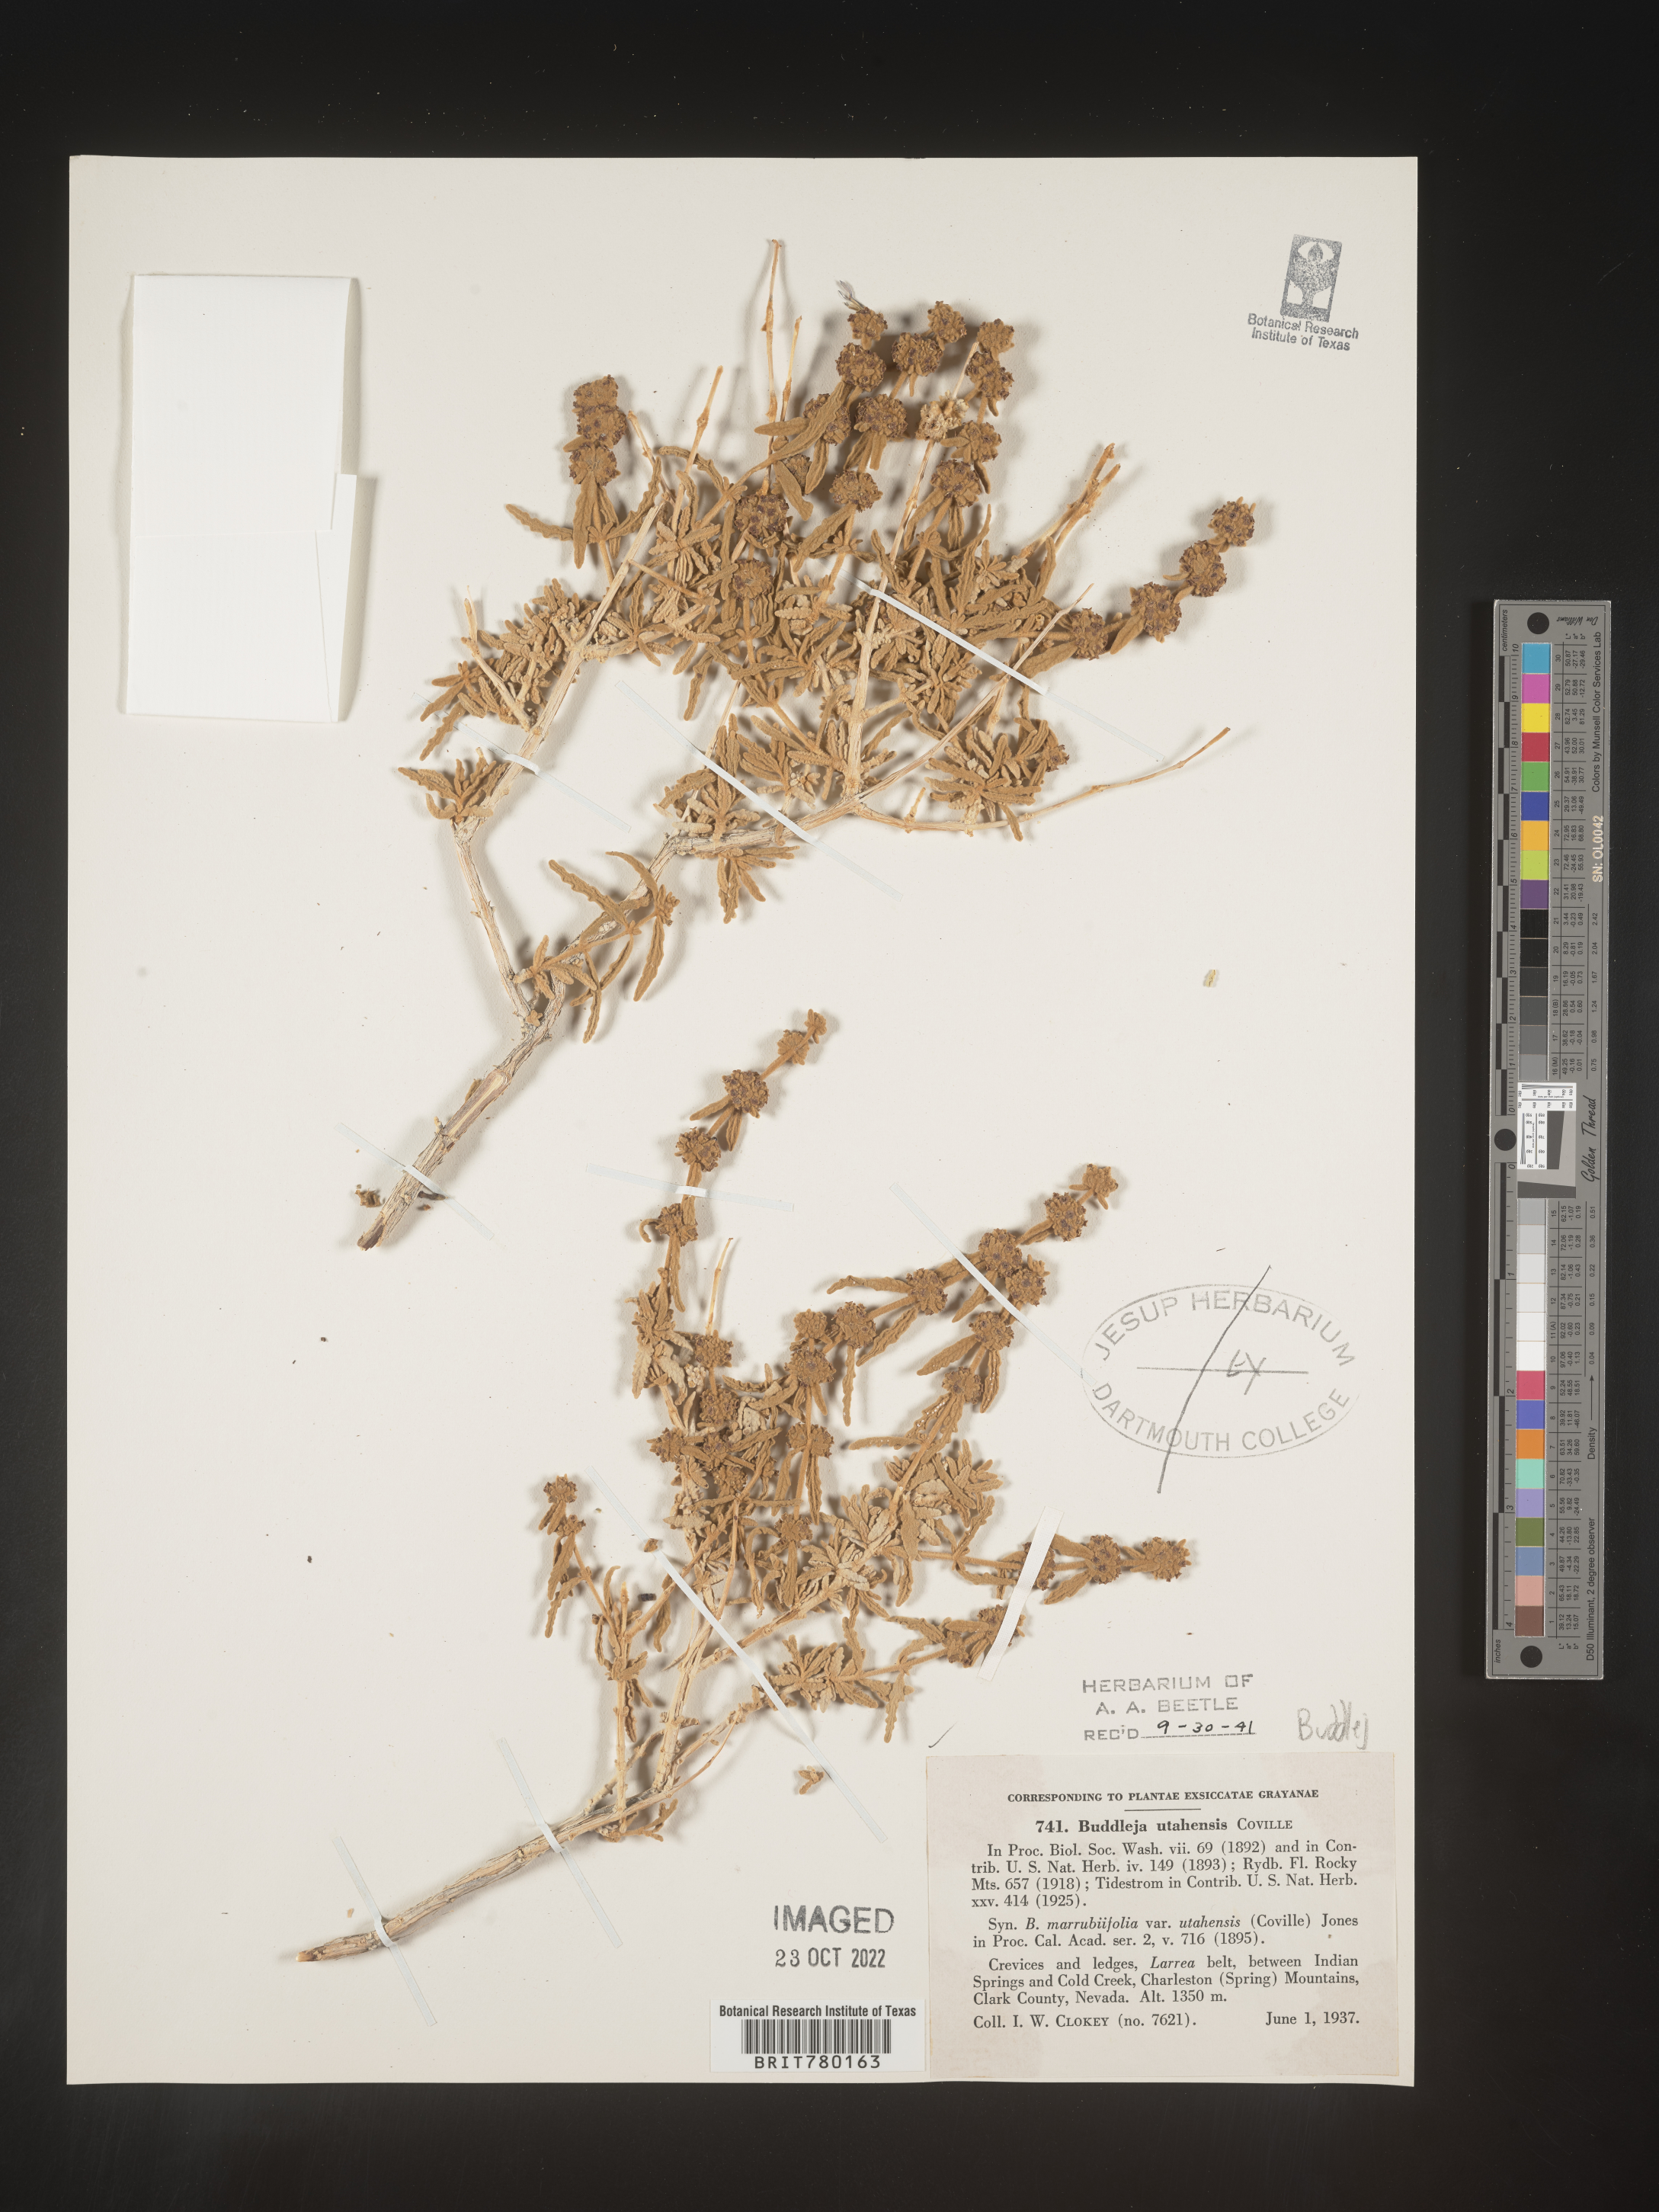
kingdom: Plantae
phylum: Tracheophyta
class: Magnoliopsida
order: Lamiales
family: Scrophulariaceae
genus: Buddleja
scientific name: Buddleja
